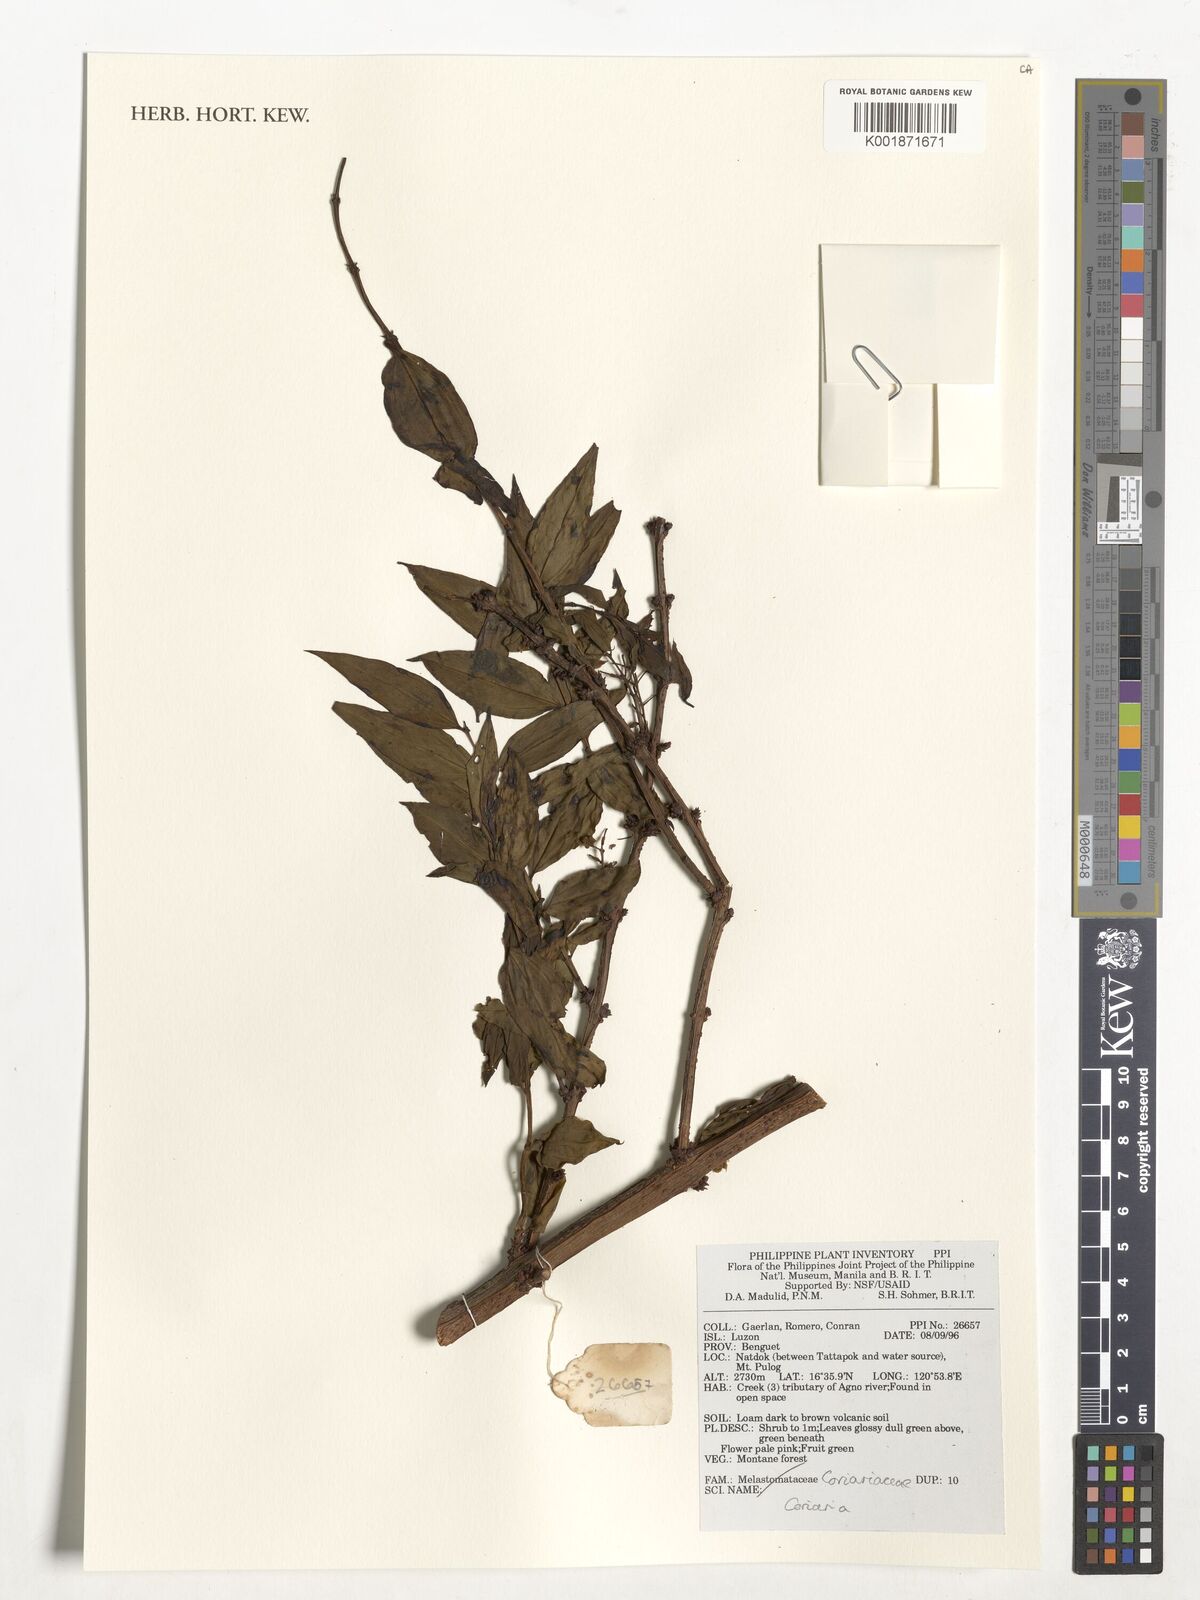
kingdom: Plantae
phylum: Tracheophyta
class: Magnoliopsida
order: Cucurbitales
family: Coriariaceae
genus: Coriaria
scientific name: Coriaria
